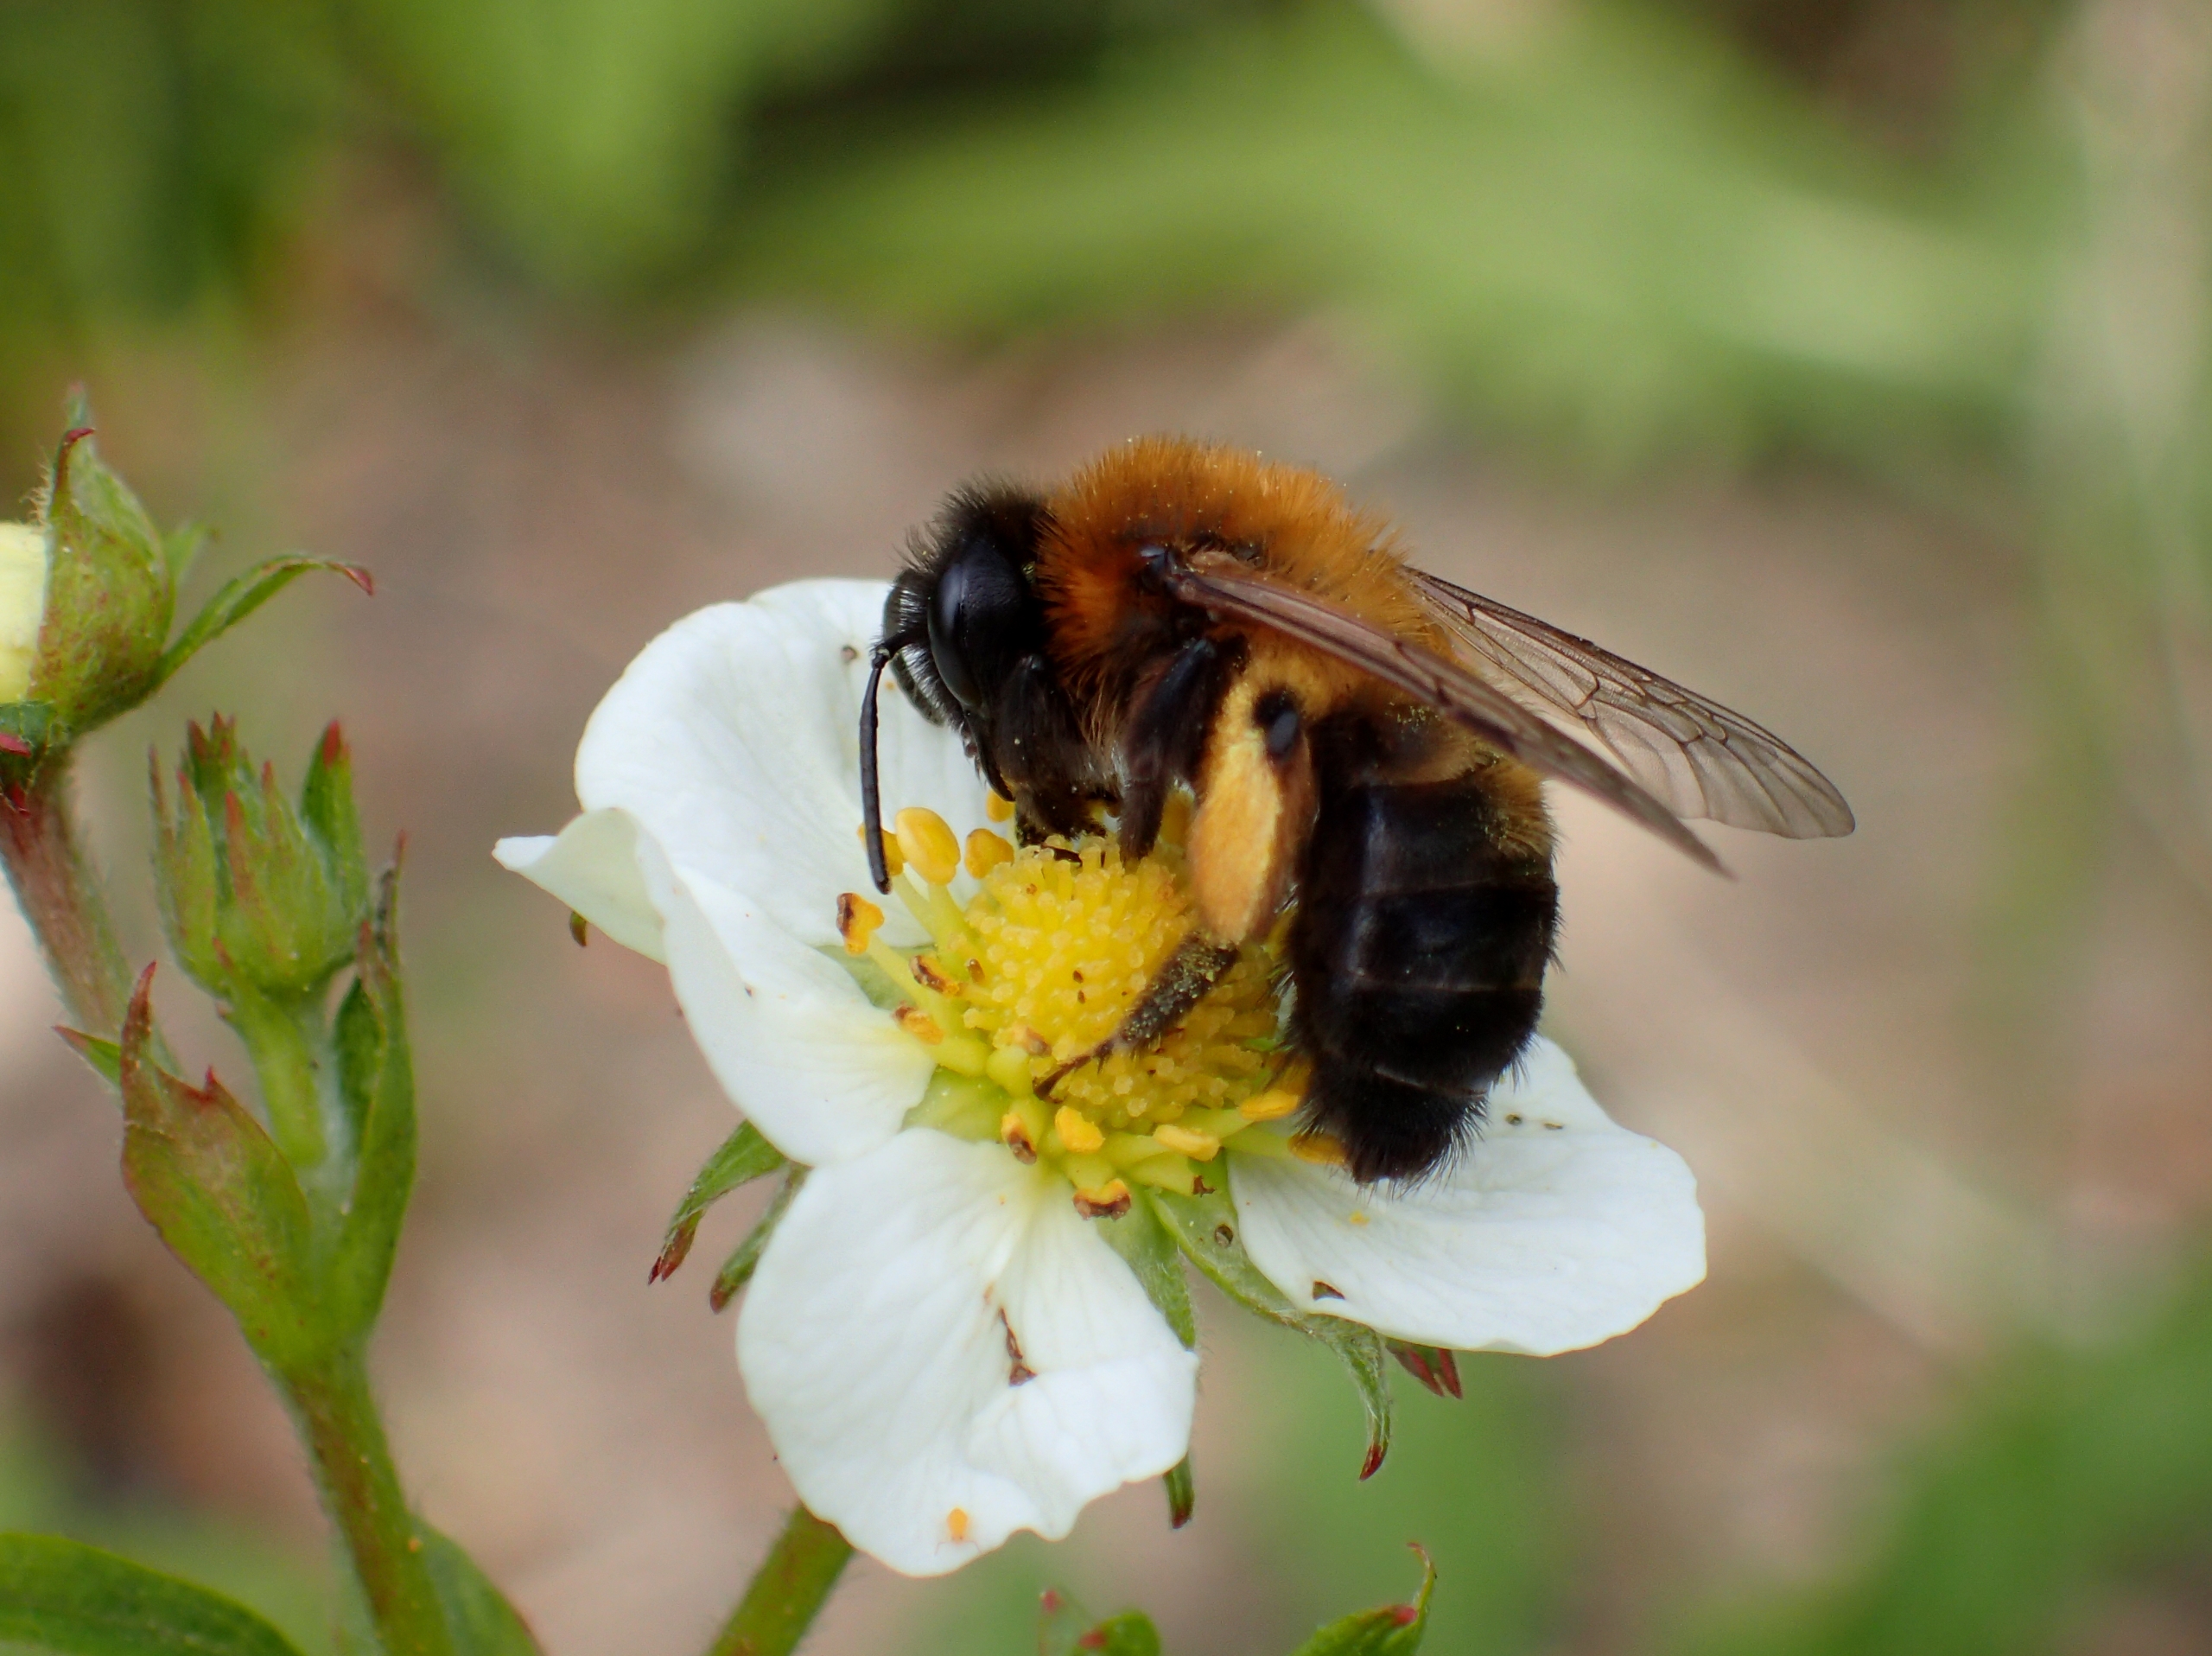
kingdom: Animalia
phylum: Arthropoda
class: Insecta
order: Hymenoptera
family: Andrenidae
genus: Andrena
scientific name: Andrena nigroaenea
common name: Sortbrun jordbi
